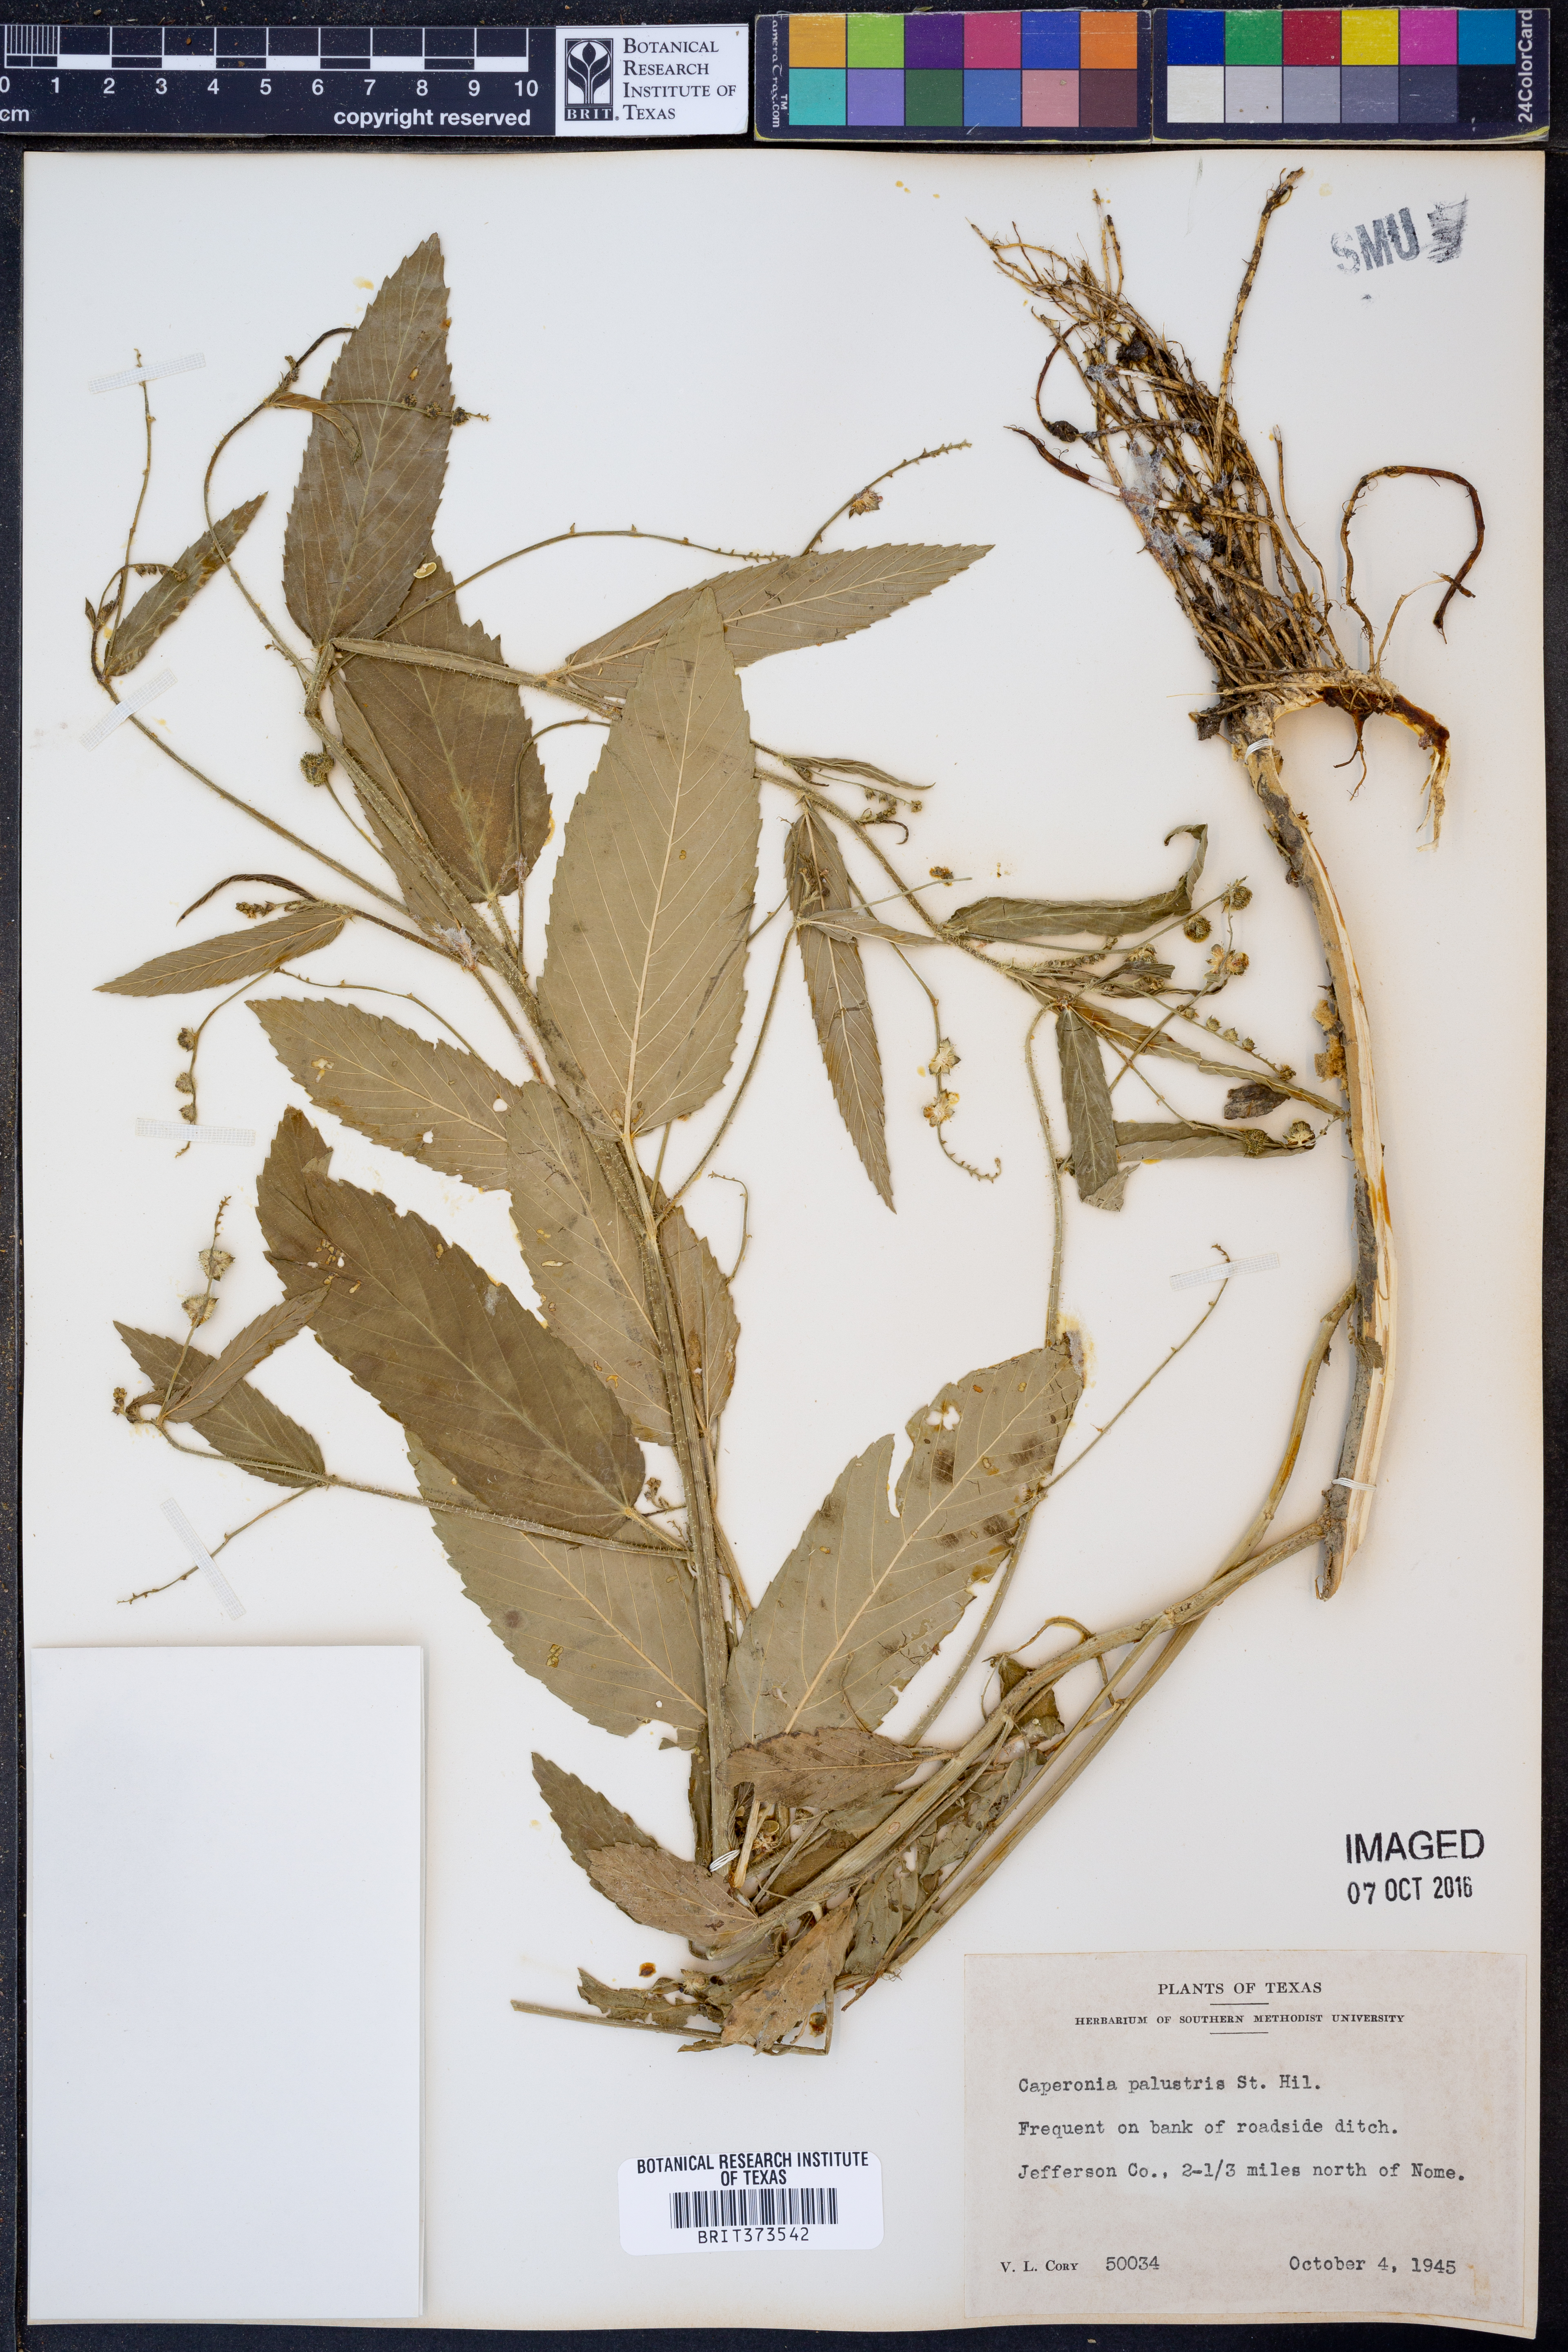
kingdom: Plantae
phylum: Tracheophyta
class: Magnoliopsida
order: Malpighiales
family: Euphorbiaceae
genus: Caperonia
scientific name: Caperonia palustris
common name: Sacatrapo
